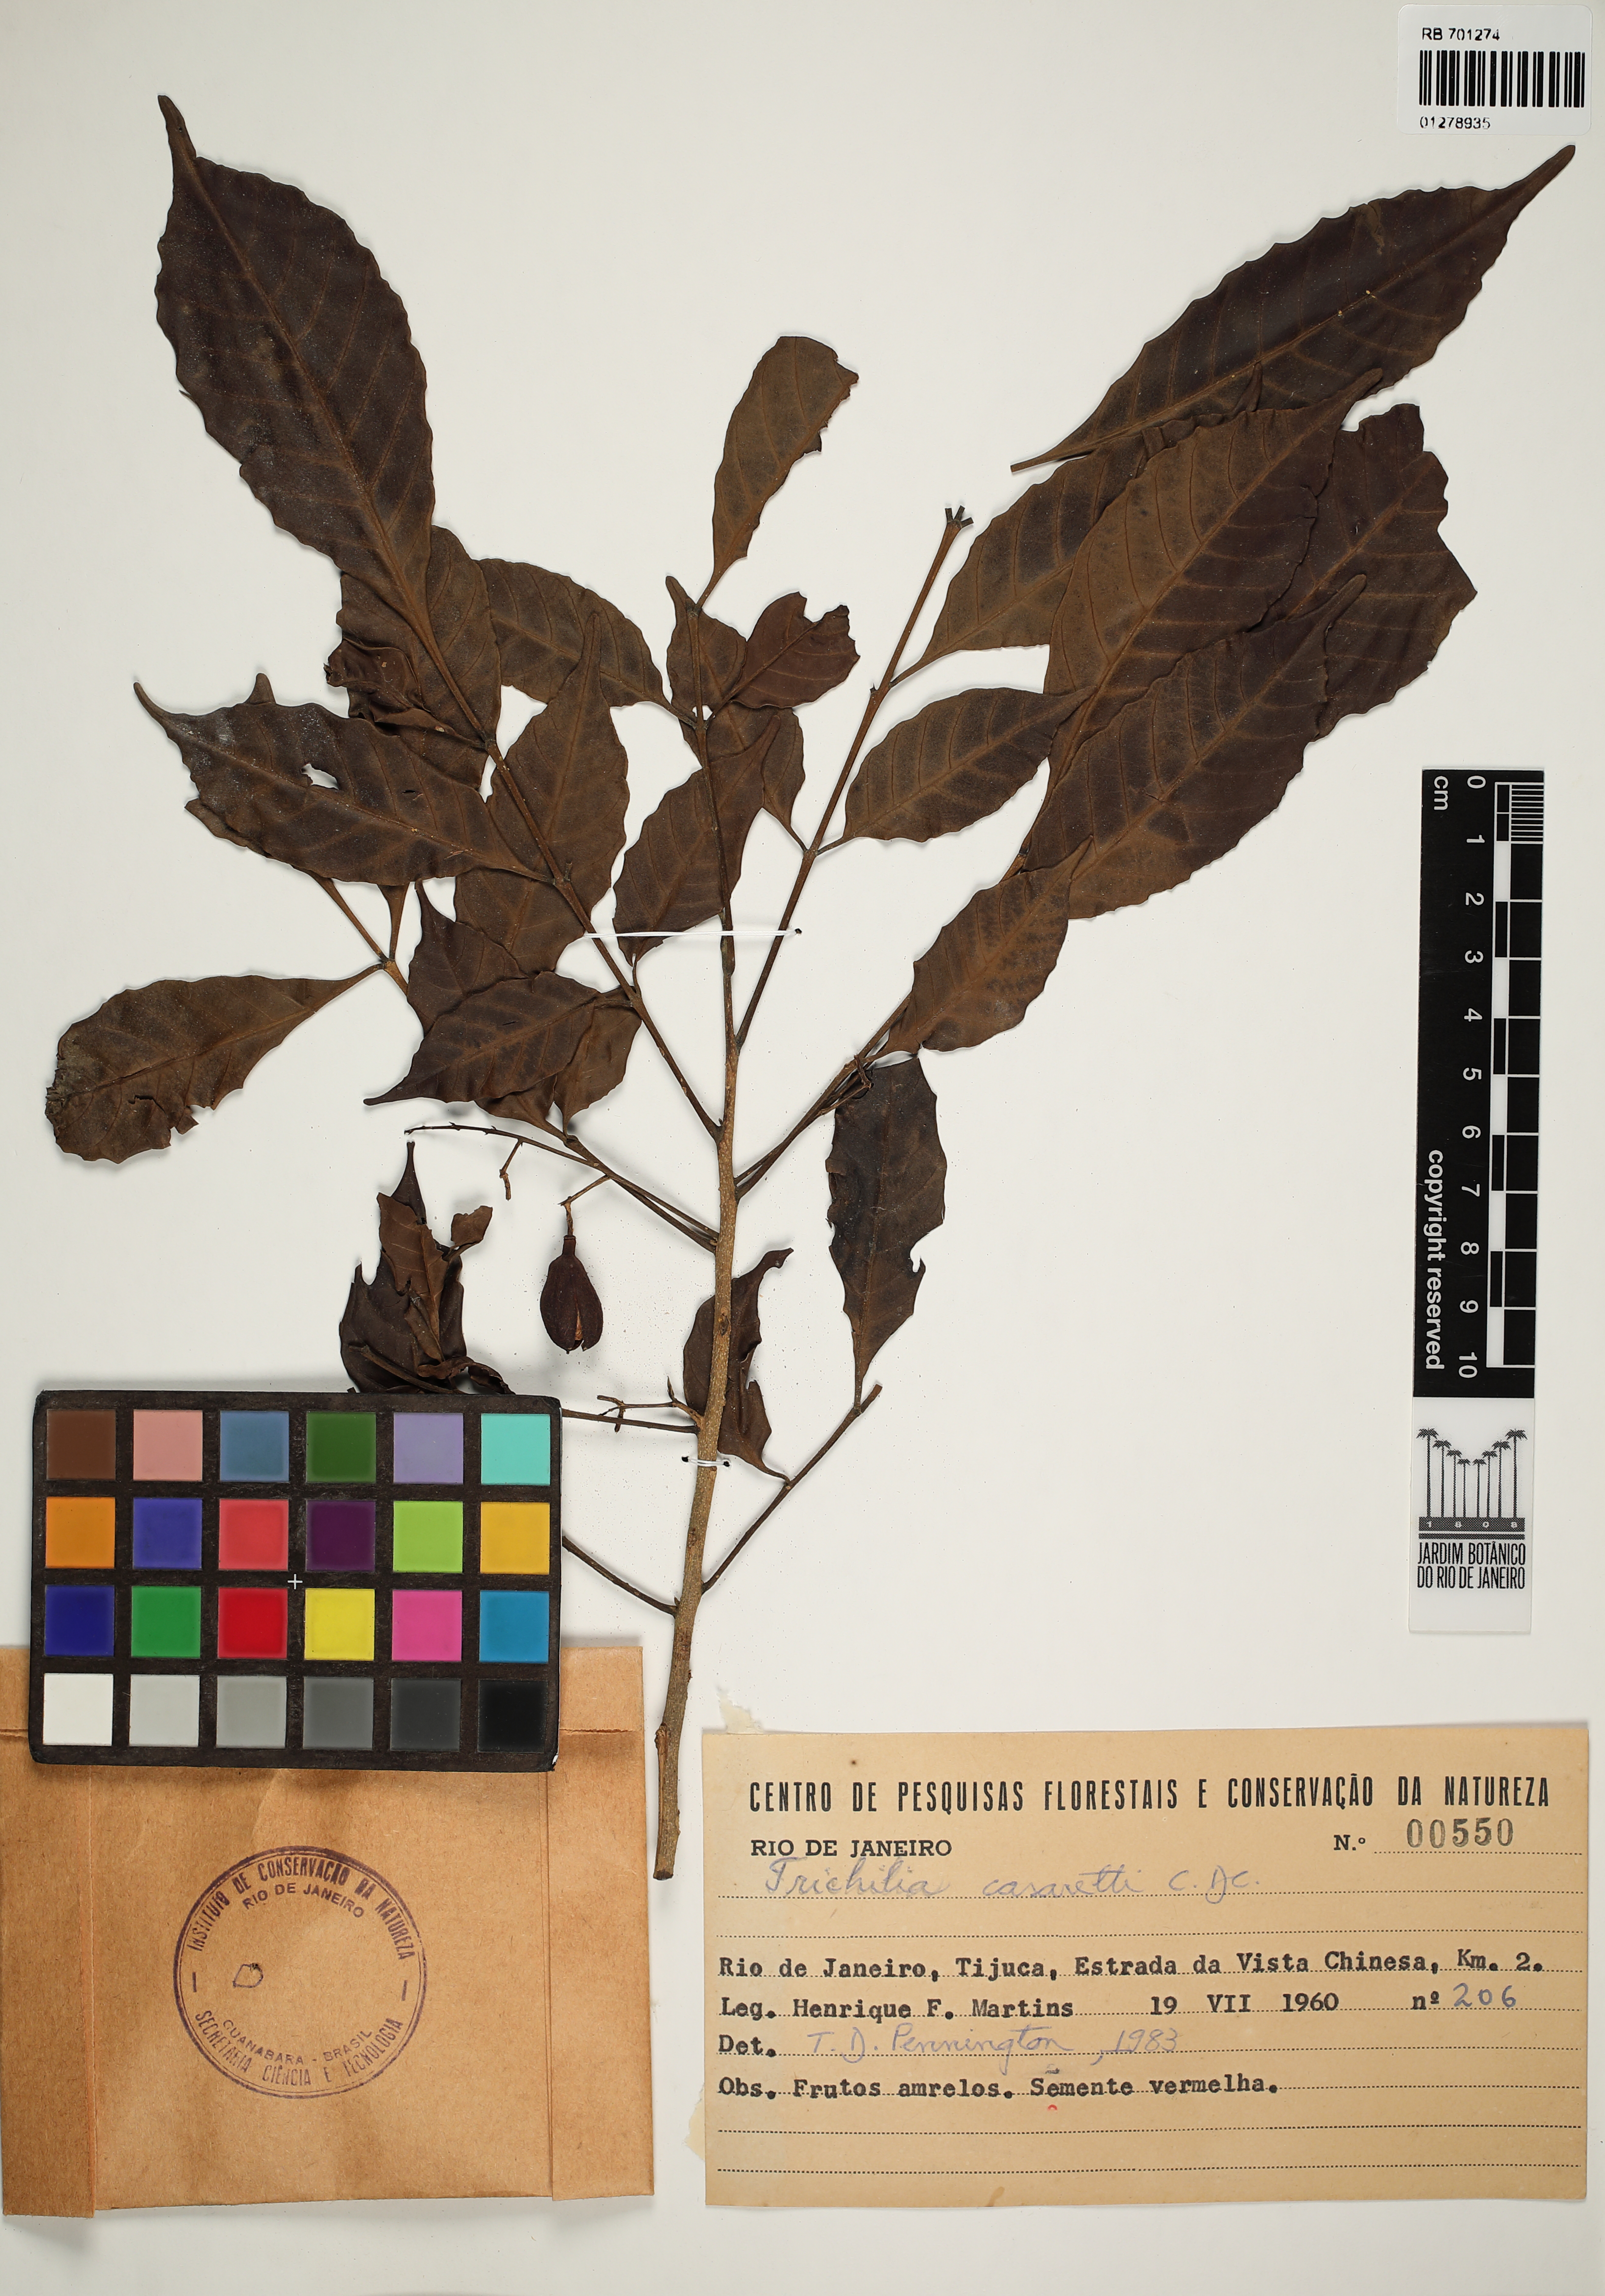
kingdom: Plantae
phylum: Tracheophyta
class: Magnoliopsida
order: Sapindales
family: Meliaceae
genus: Trichilia
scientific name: Trichilia casaretti
